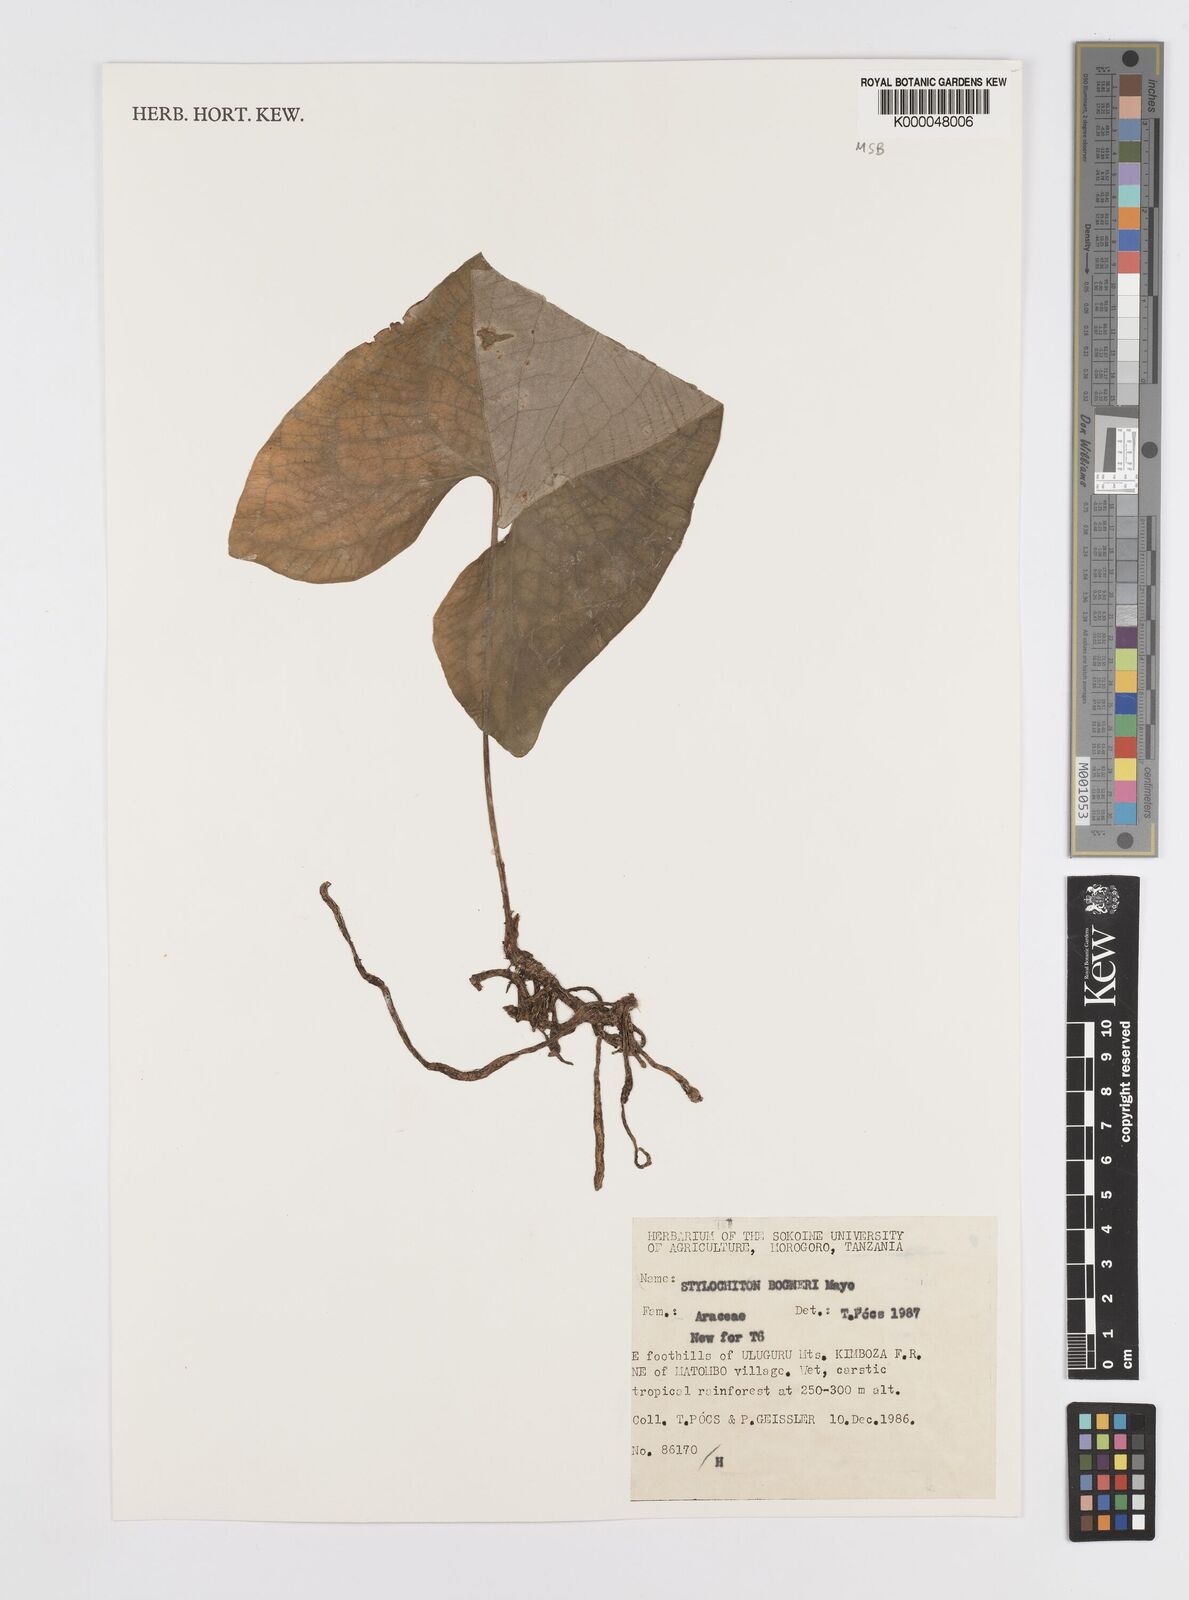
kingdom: Plantae
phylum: Tracheophyta
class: Liliopsida
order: Alismatales
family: Araceae
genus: Stylochaeton
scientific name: Stylochaeton bogneri
